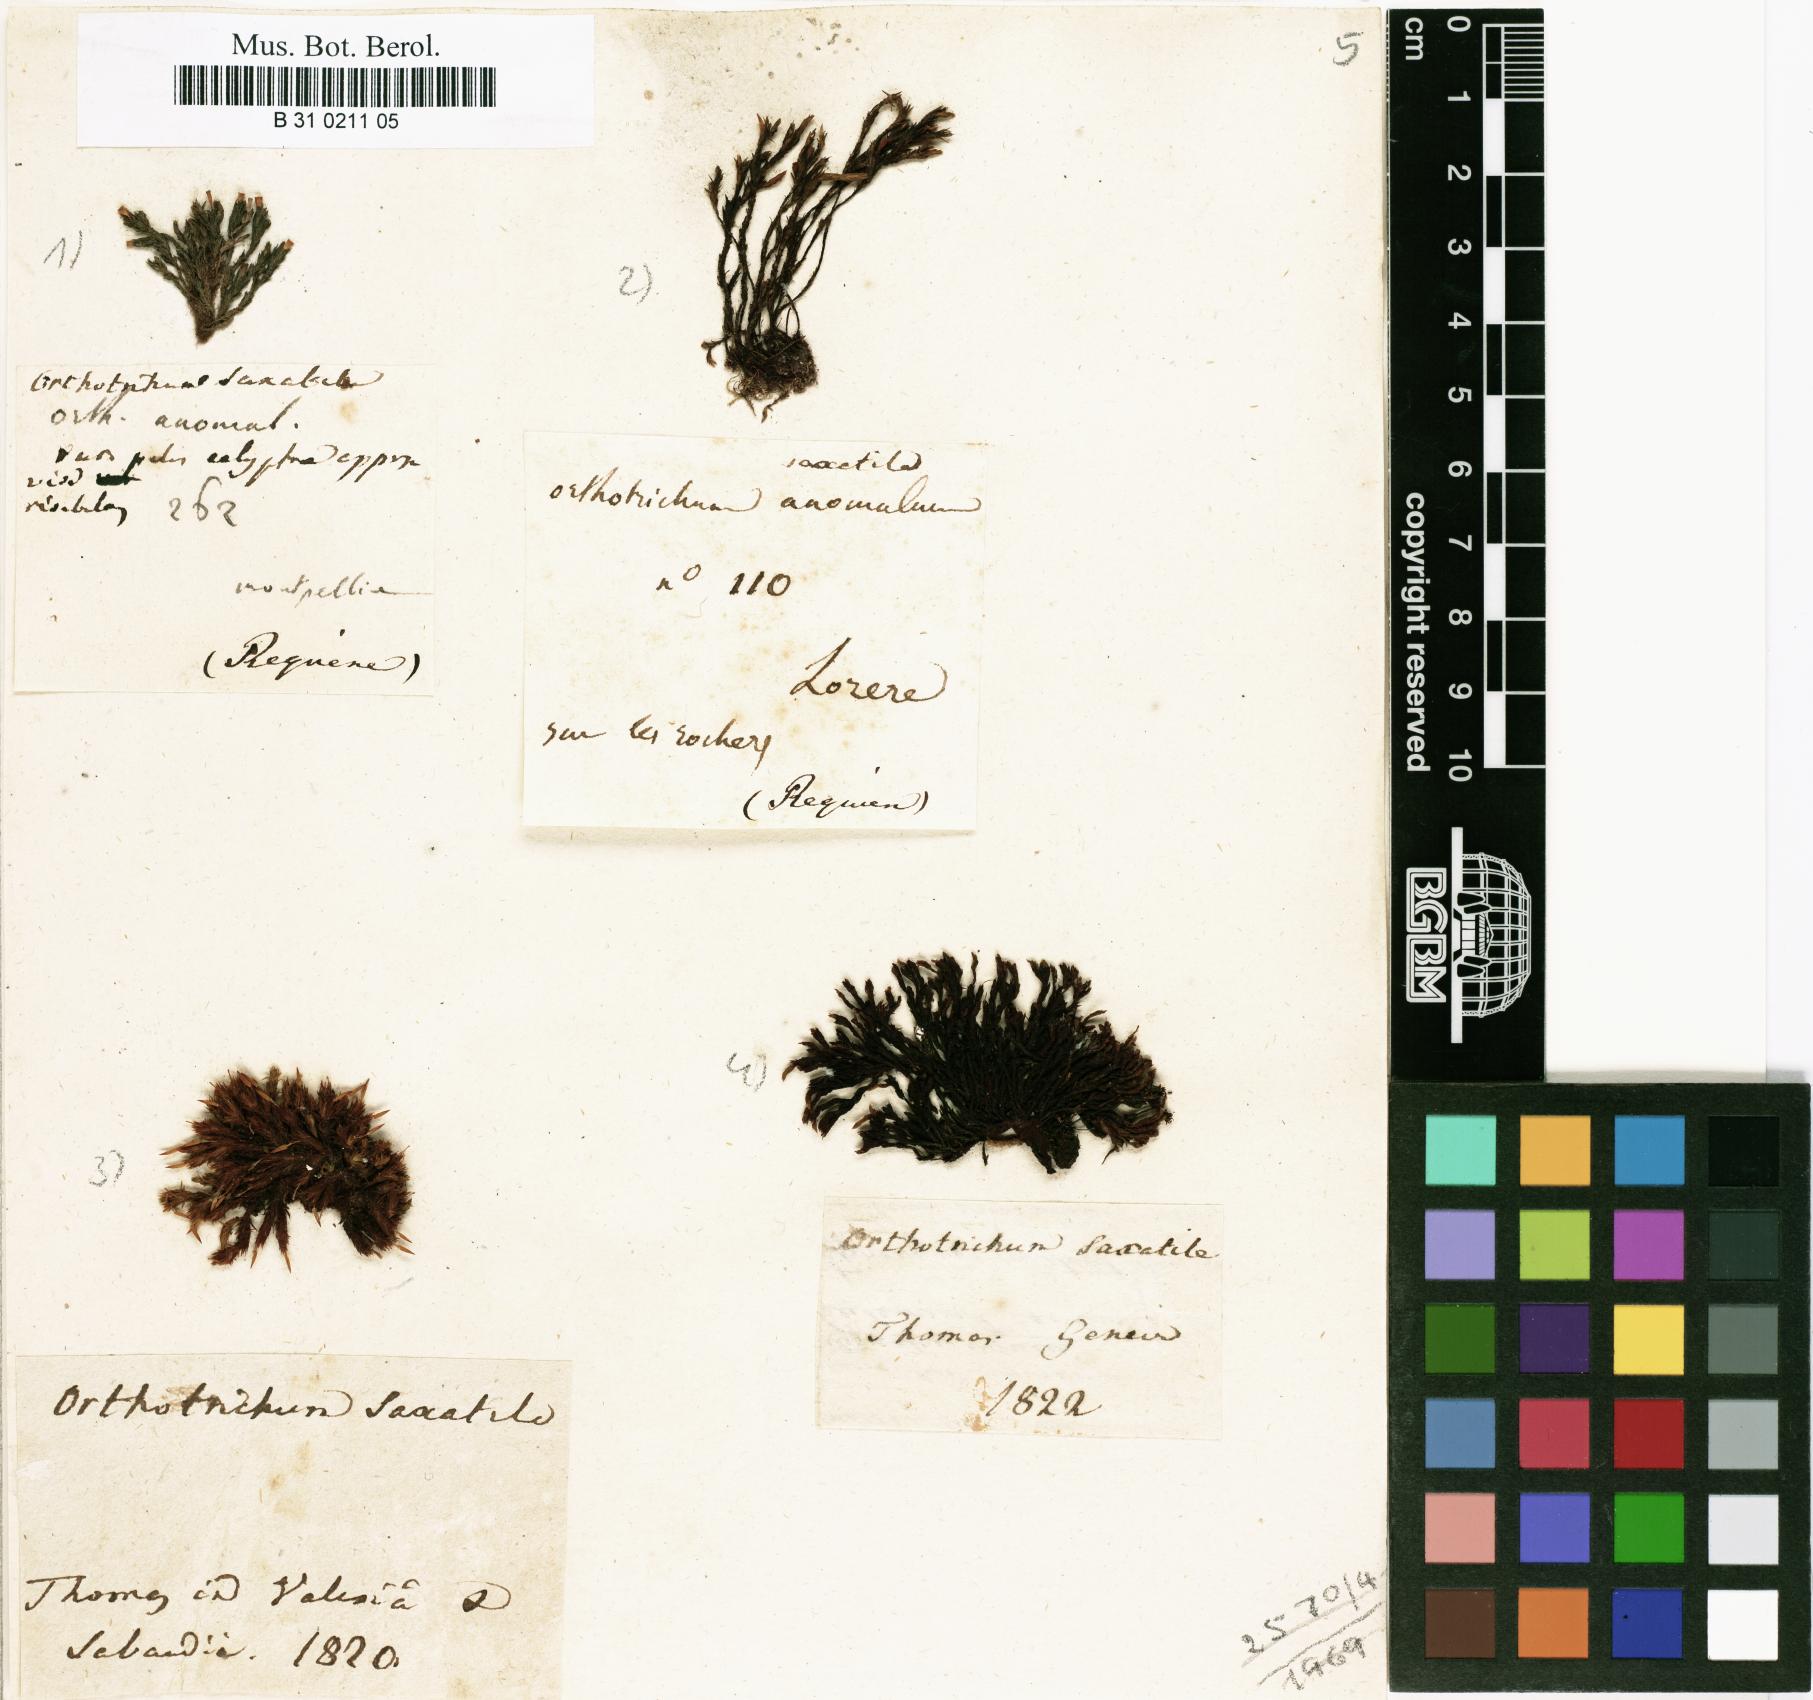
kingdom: Plantae
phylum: Bryophyta
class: Bryopsida
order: Orthotrichales
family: Orthotrichaceae
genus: Orthotrichum
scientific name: Orthotrichum anomalum
